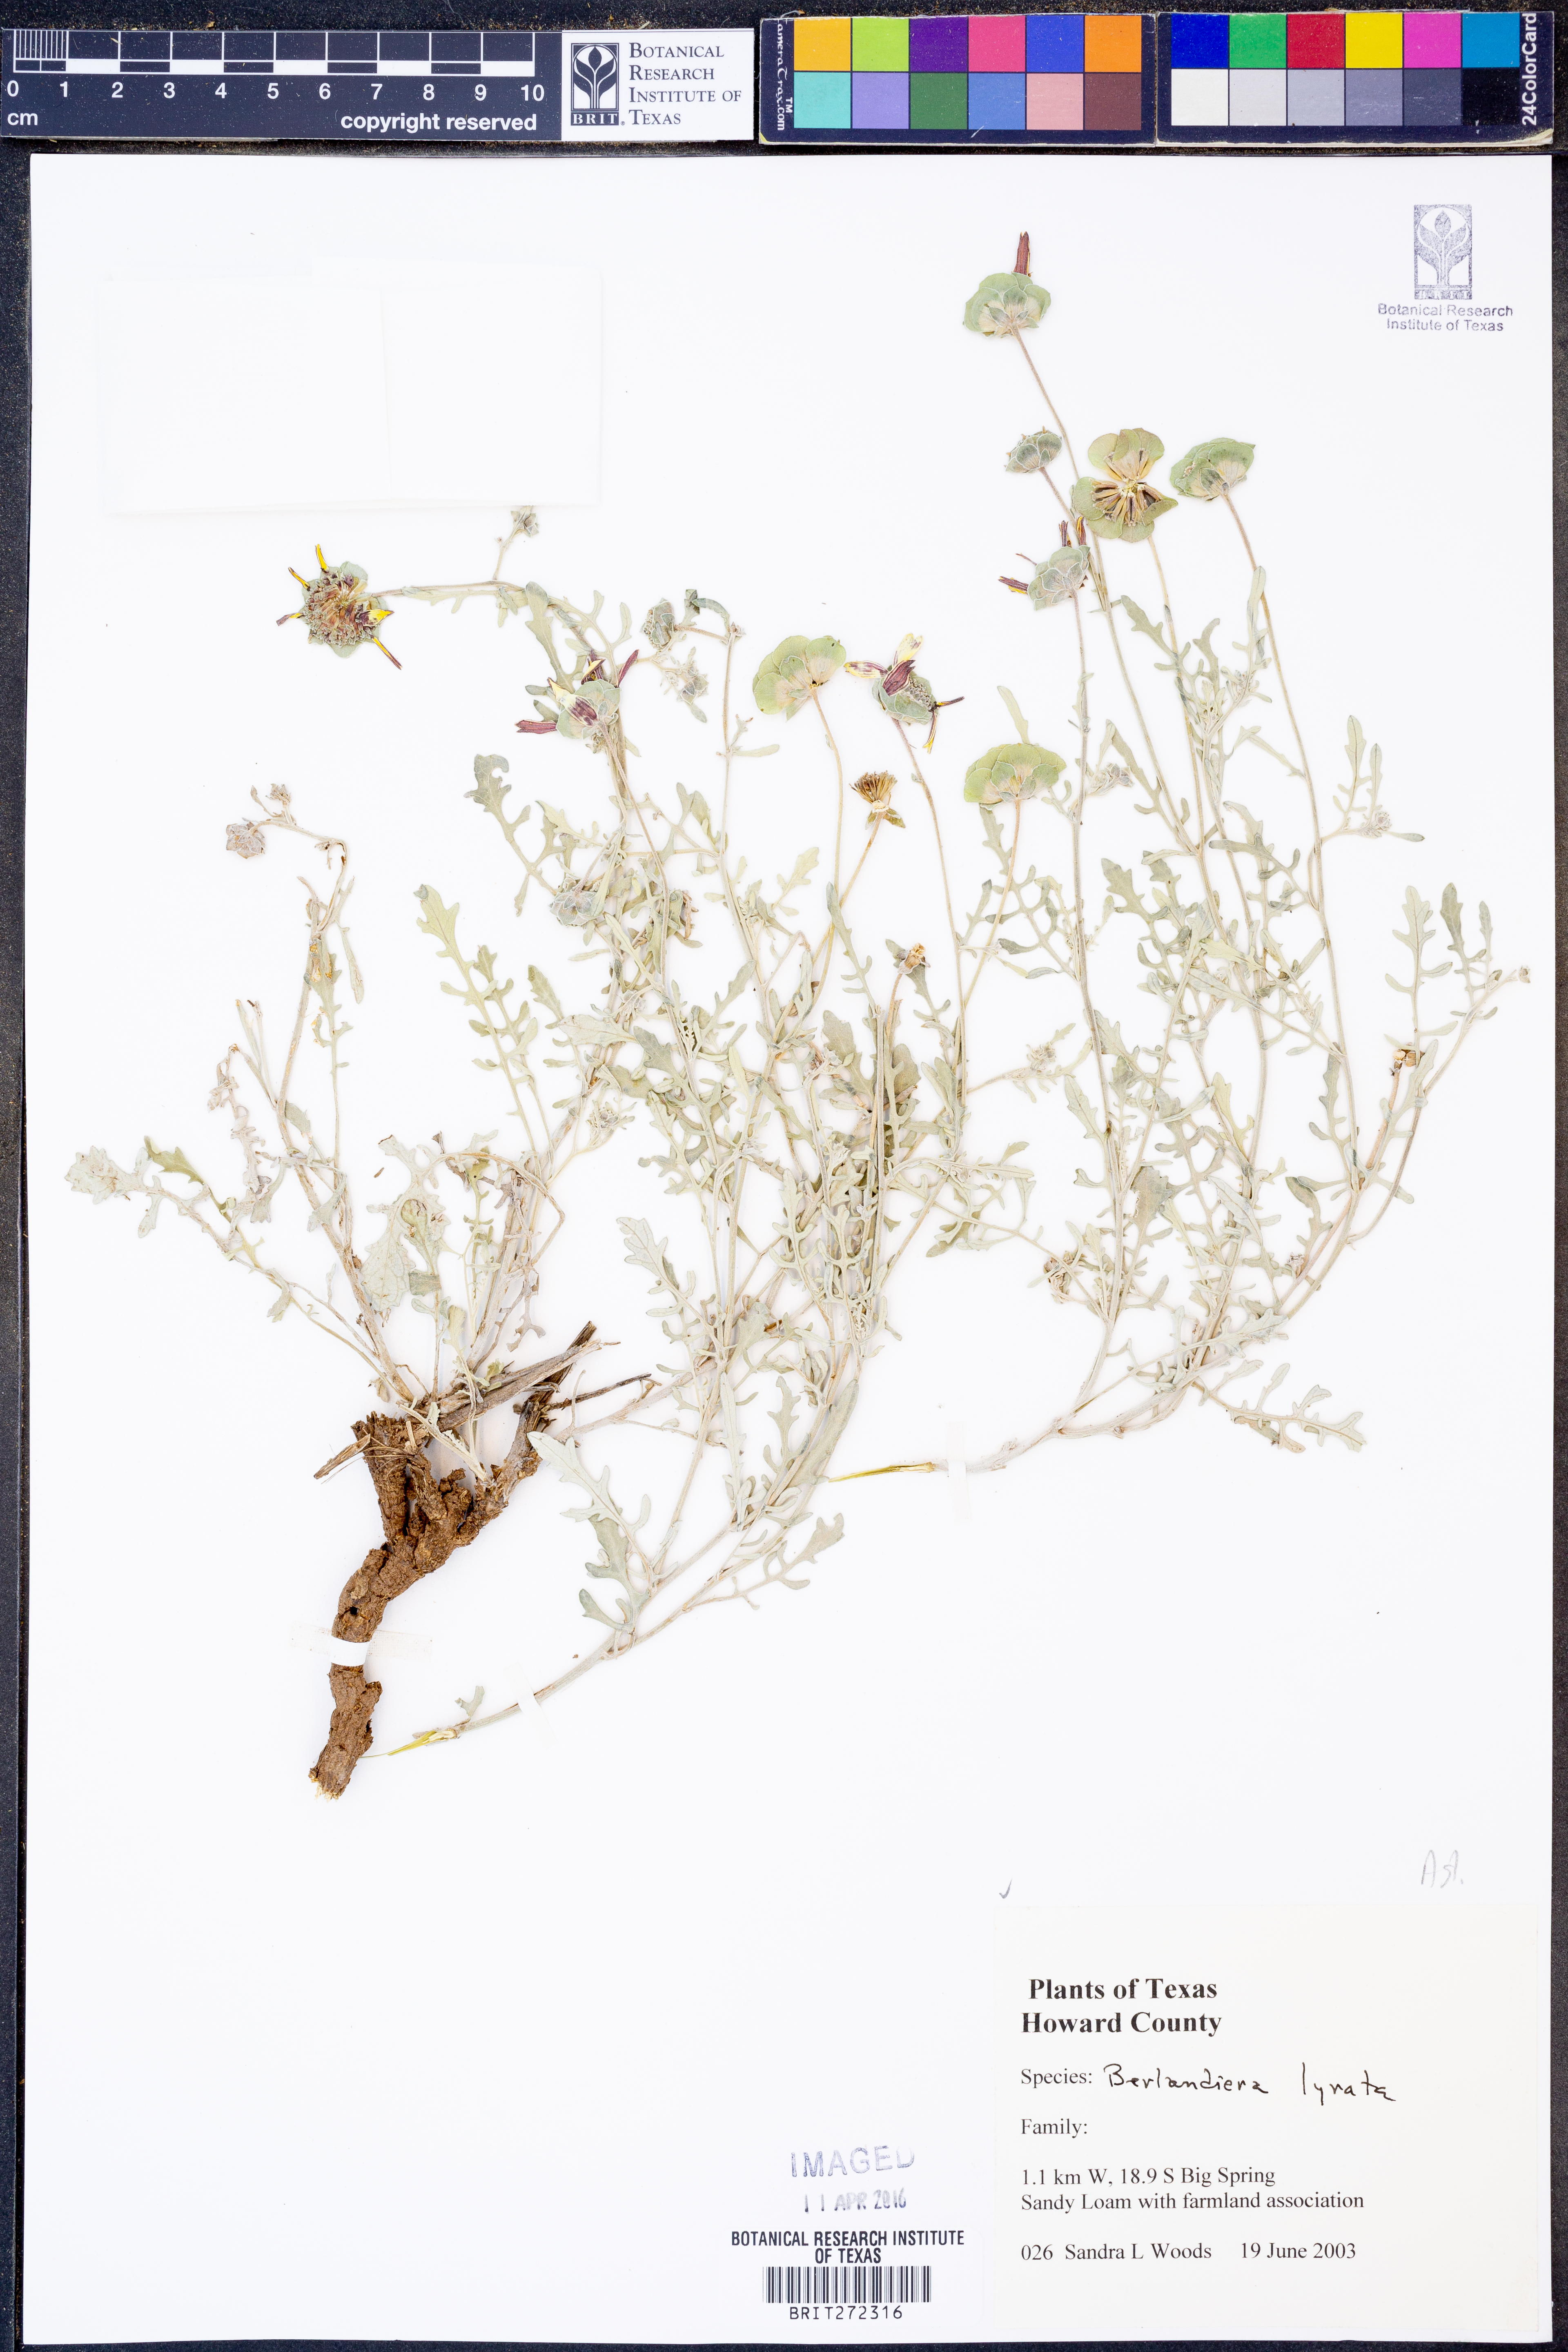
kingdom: Plantae
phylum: Tracheophyta
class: Magnoliopsida
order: Asterales
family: Asteraceae
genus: Berlandiera
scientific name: Berlandiera lyrata
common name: Chocolate-flower
